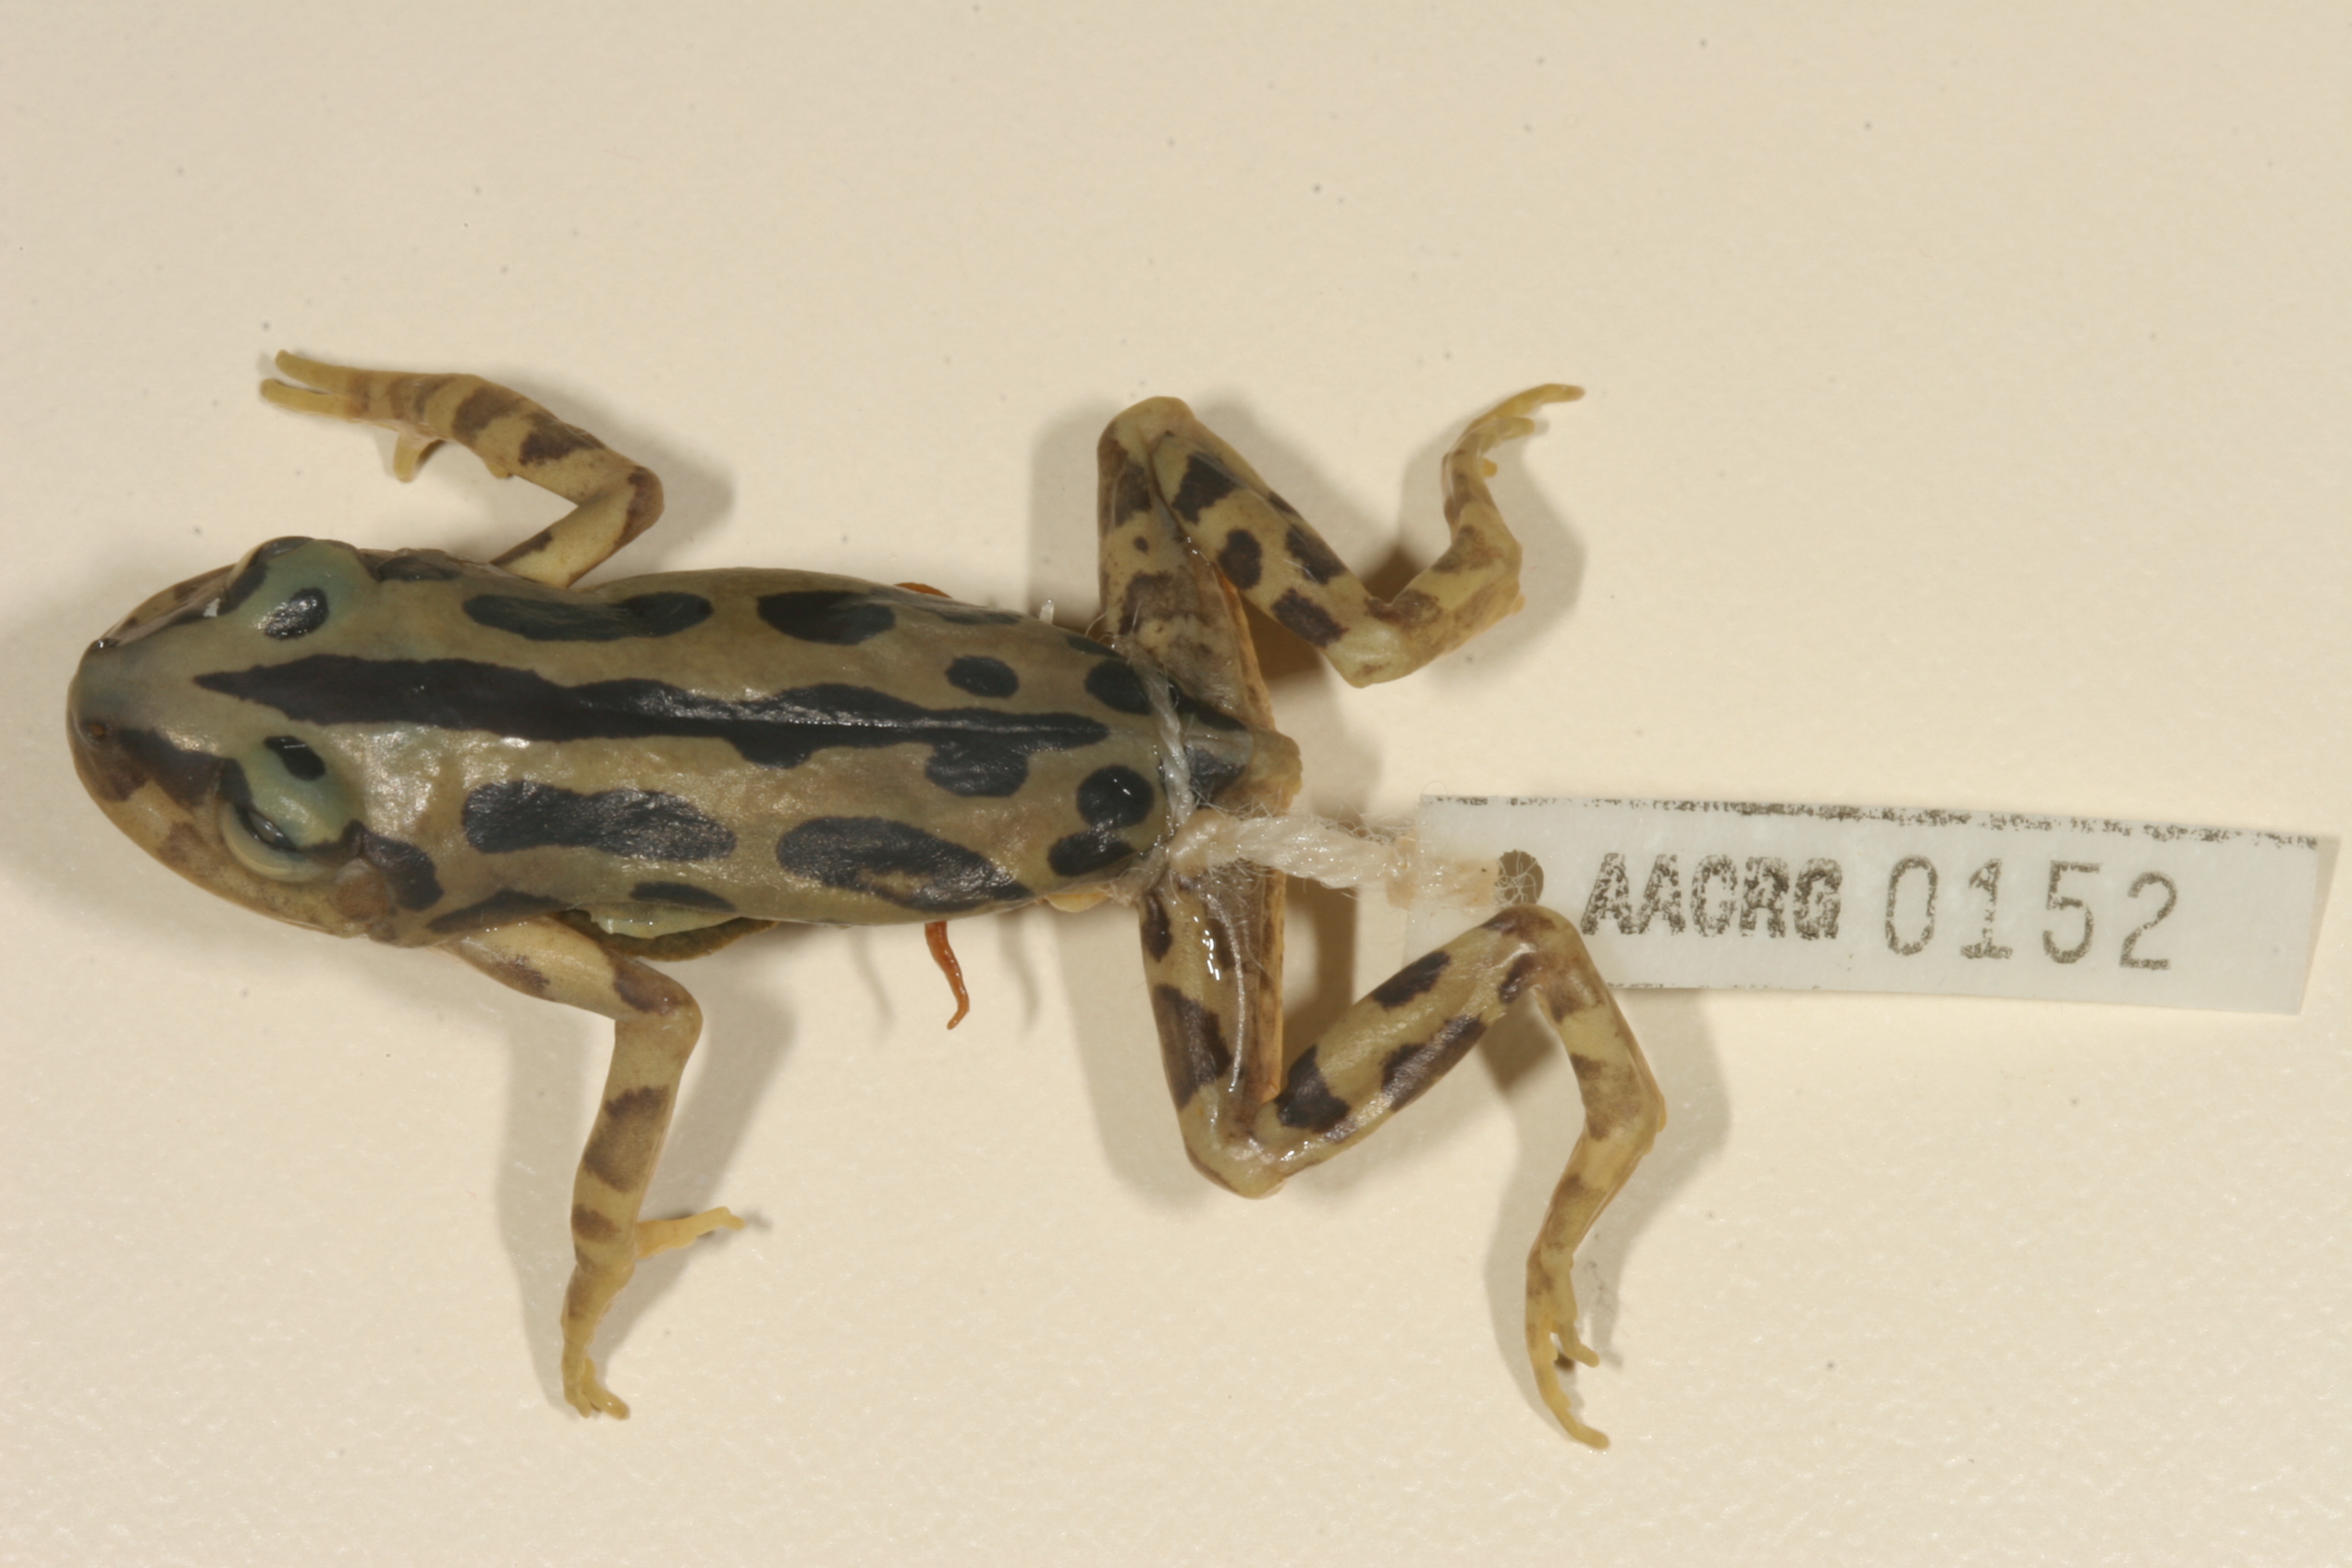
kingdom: Animalia
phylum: Chordata
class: Amphibia
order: Anura
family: Hyperoliidae
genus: Kassina
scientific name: Kassina senegalensis
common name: Senegal land frog
